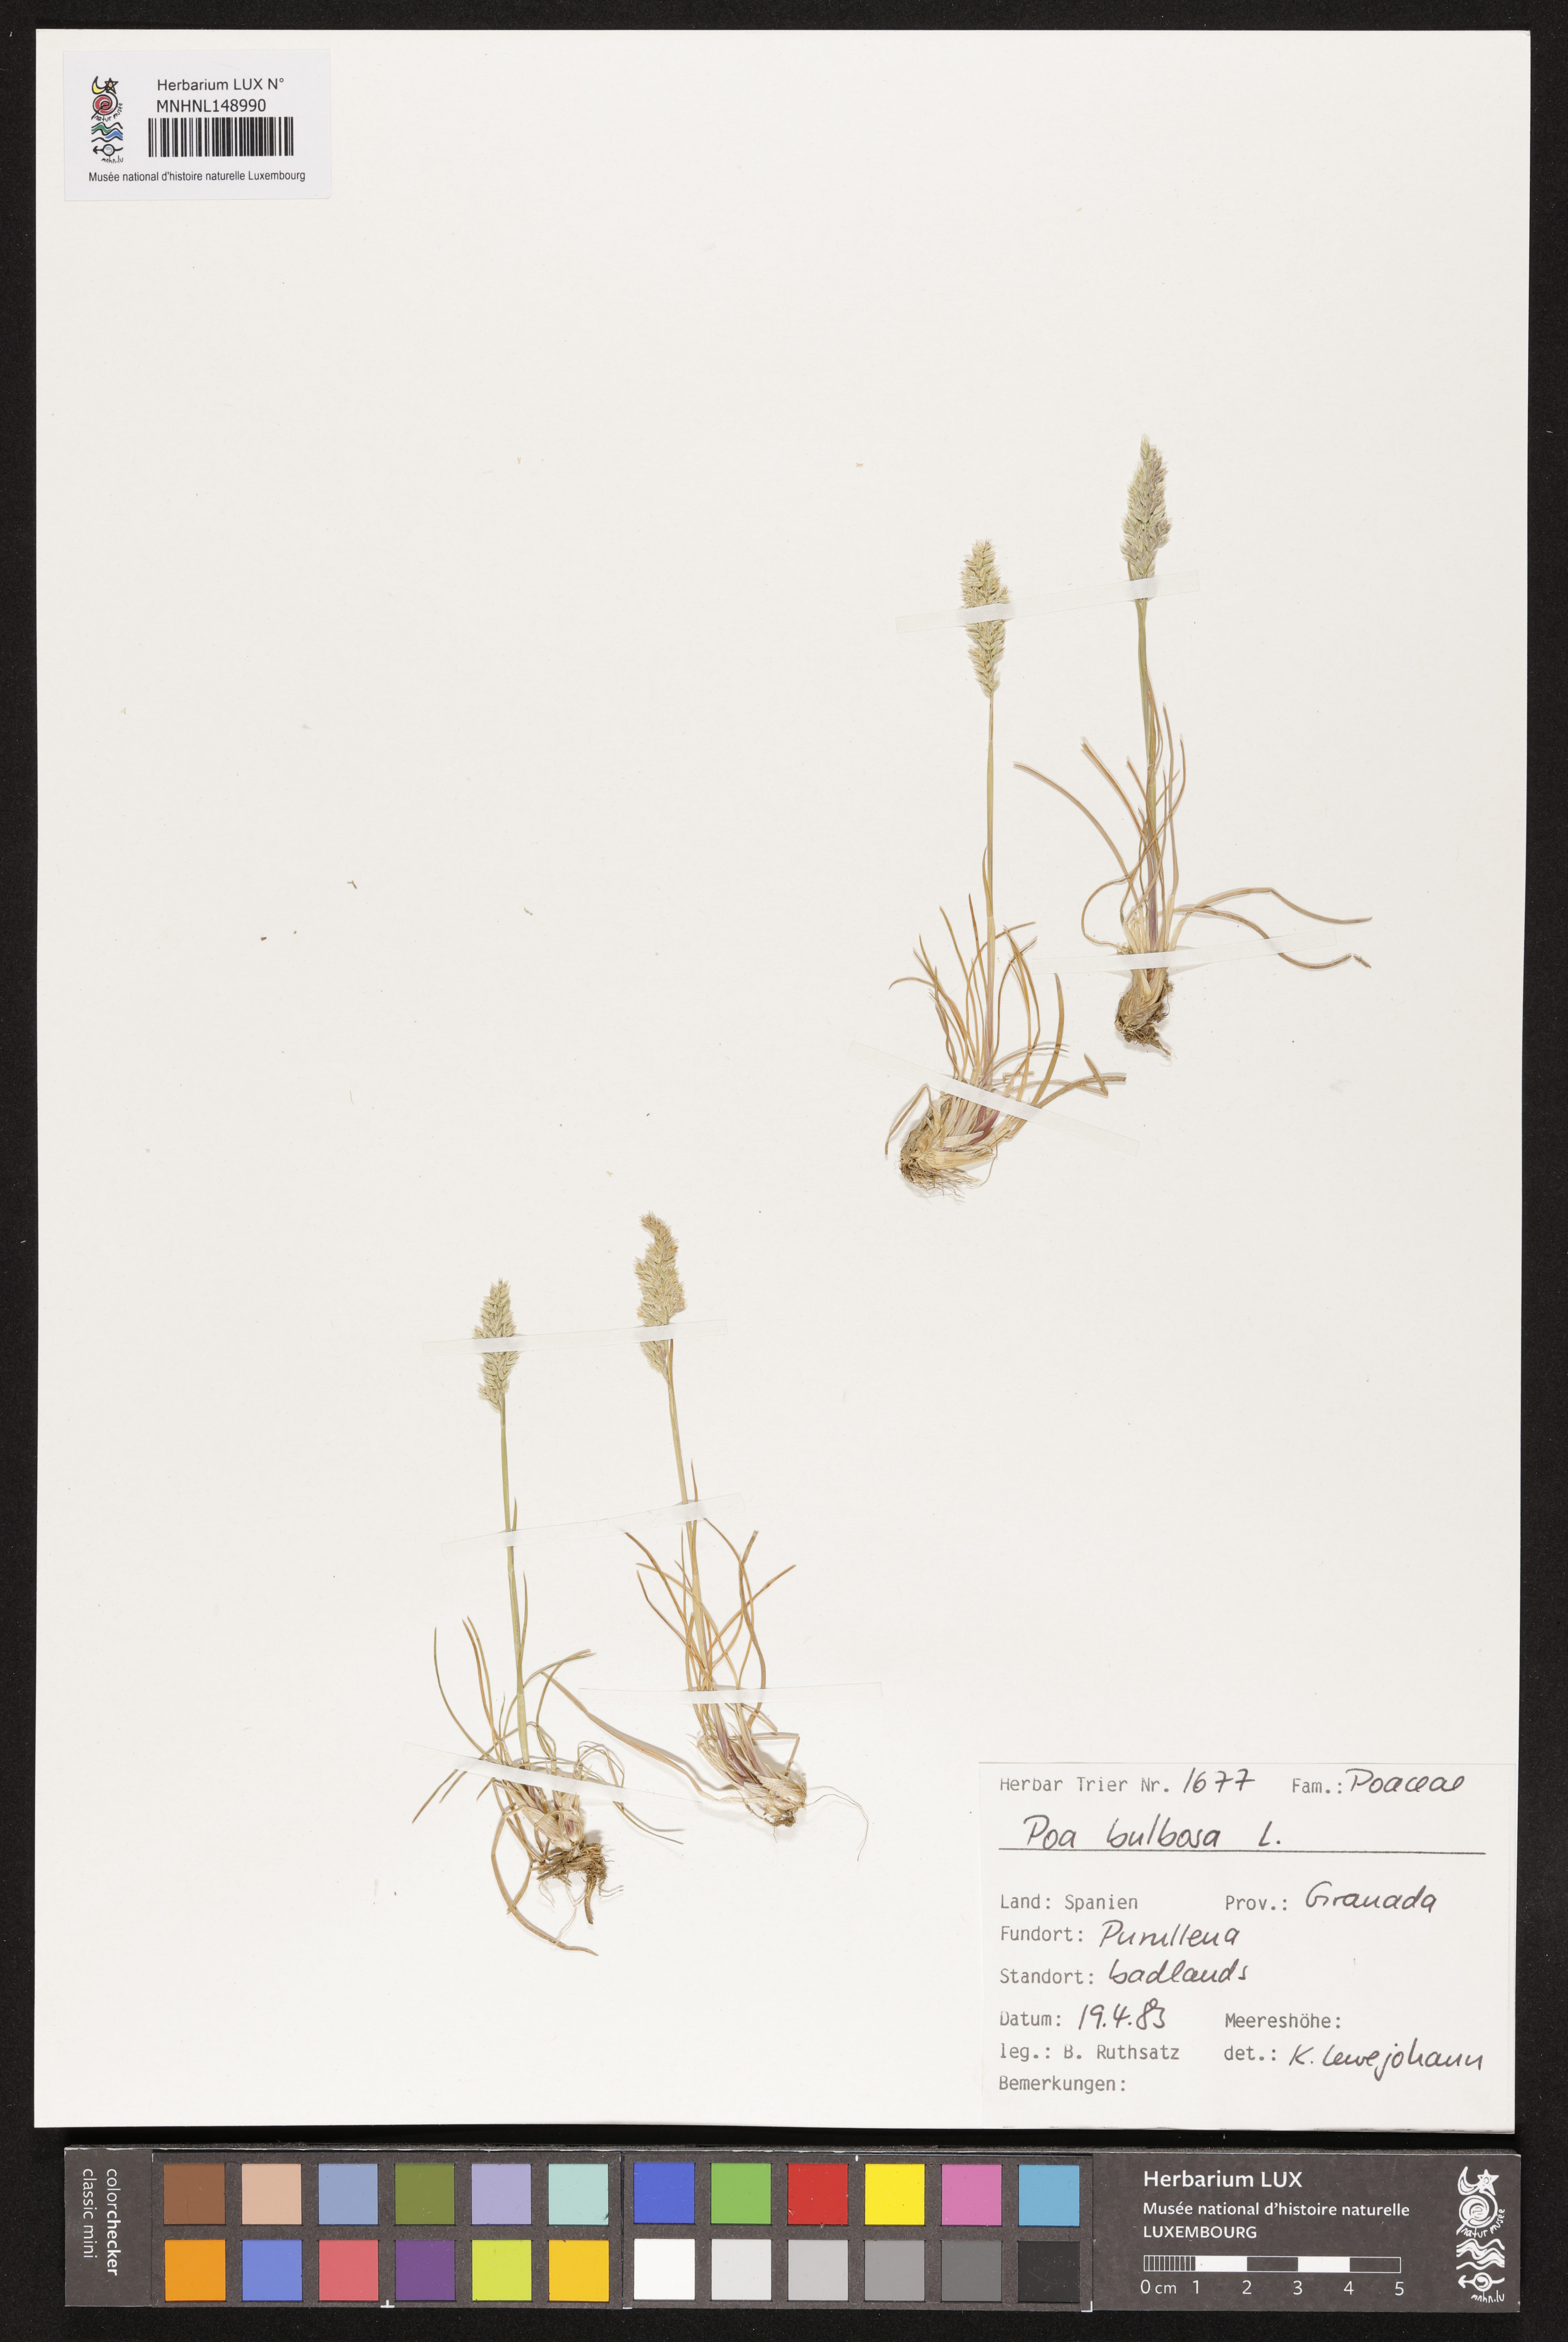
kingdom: Plantae
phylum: Tracheophyta
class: Liliopsida
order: Poales
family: Poaceae
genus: Poa
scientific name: Poa bulbosa
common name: Bulbous bluegrass
